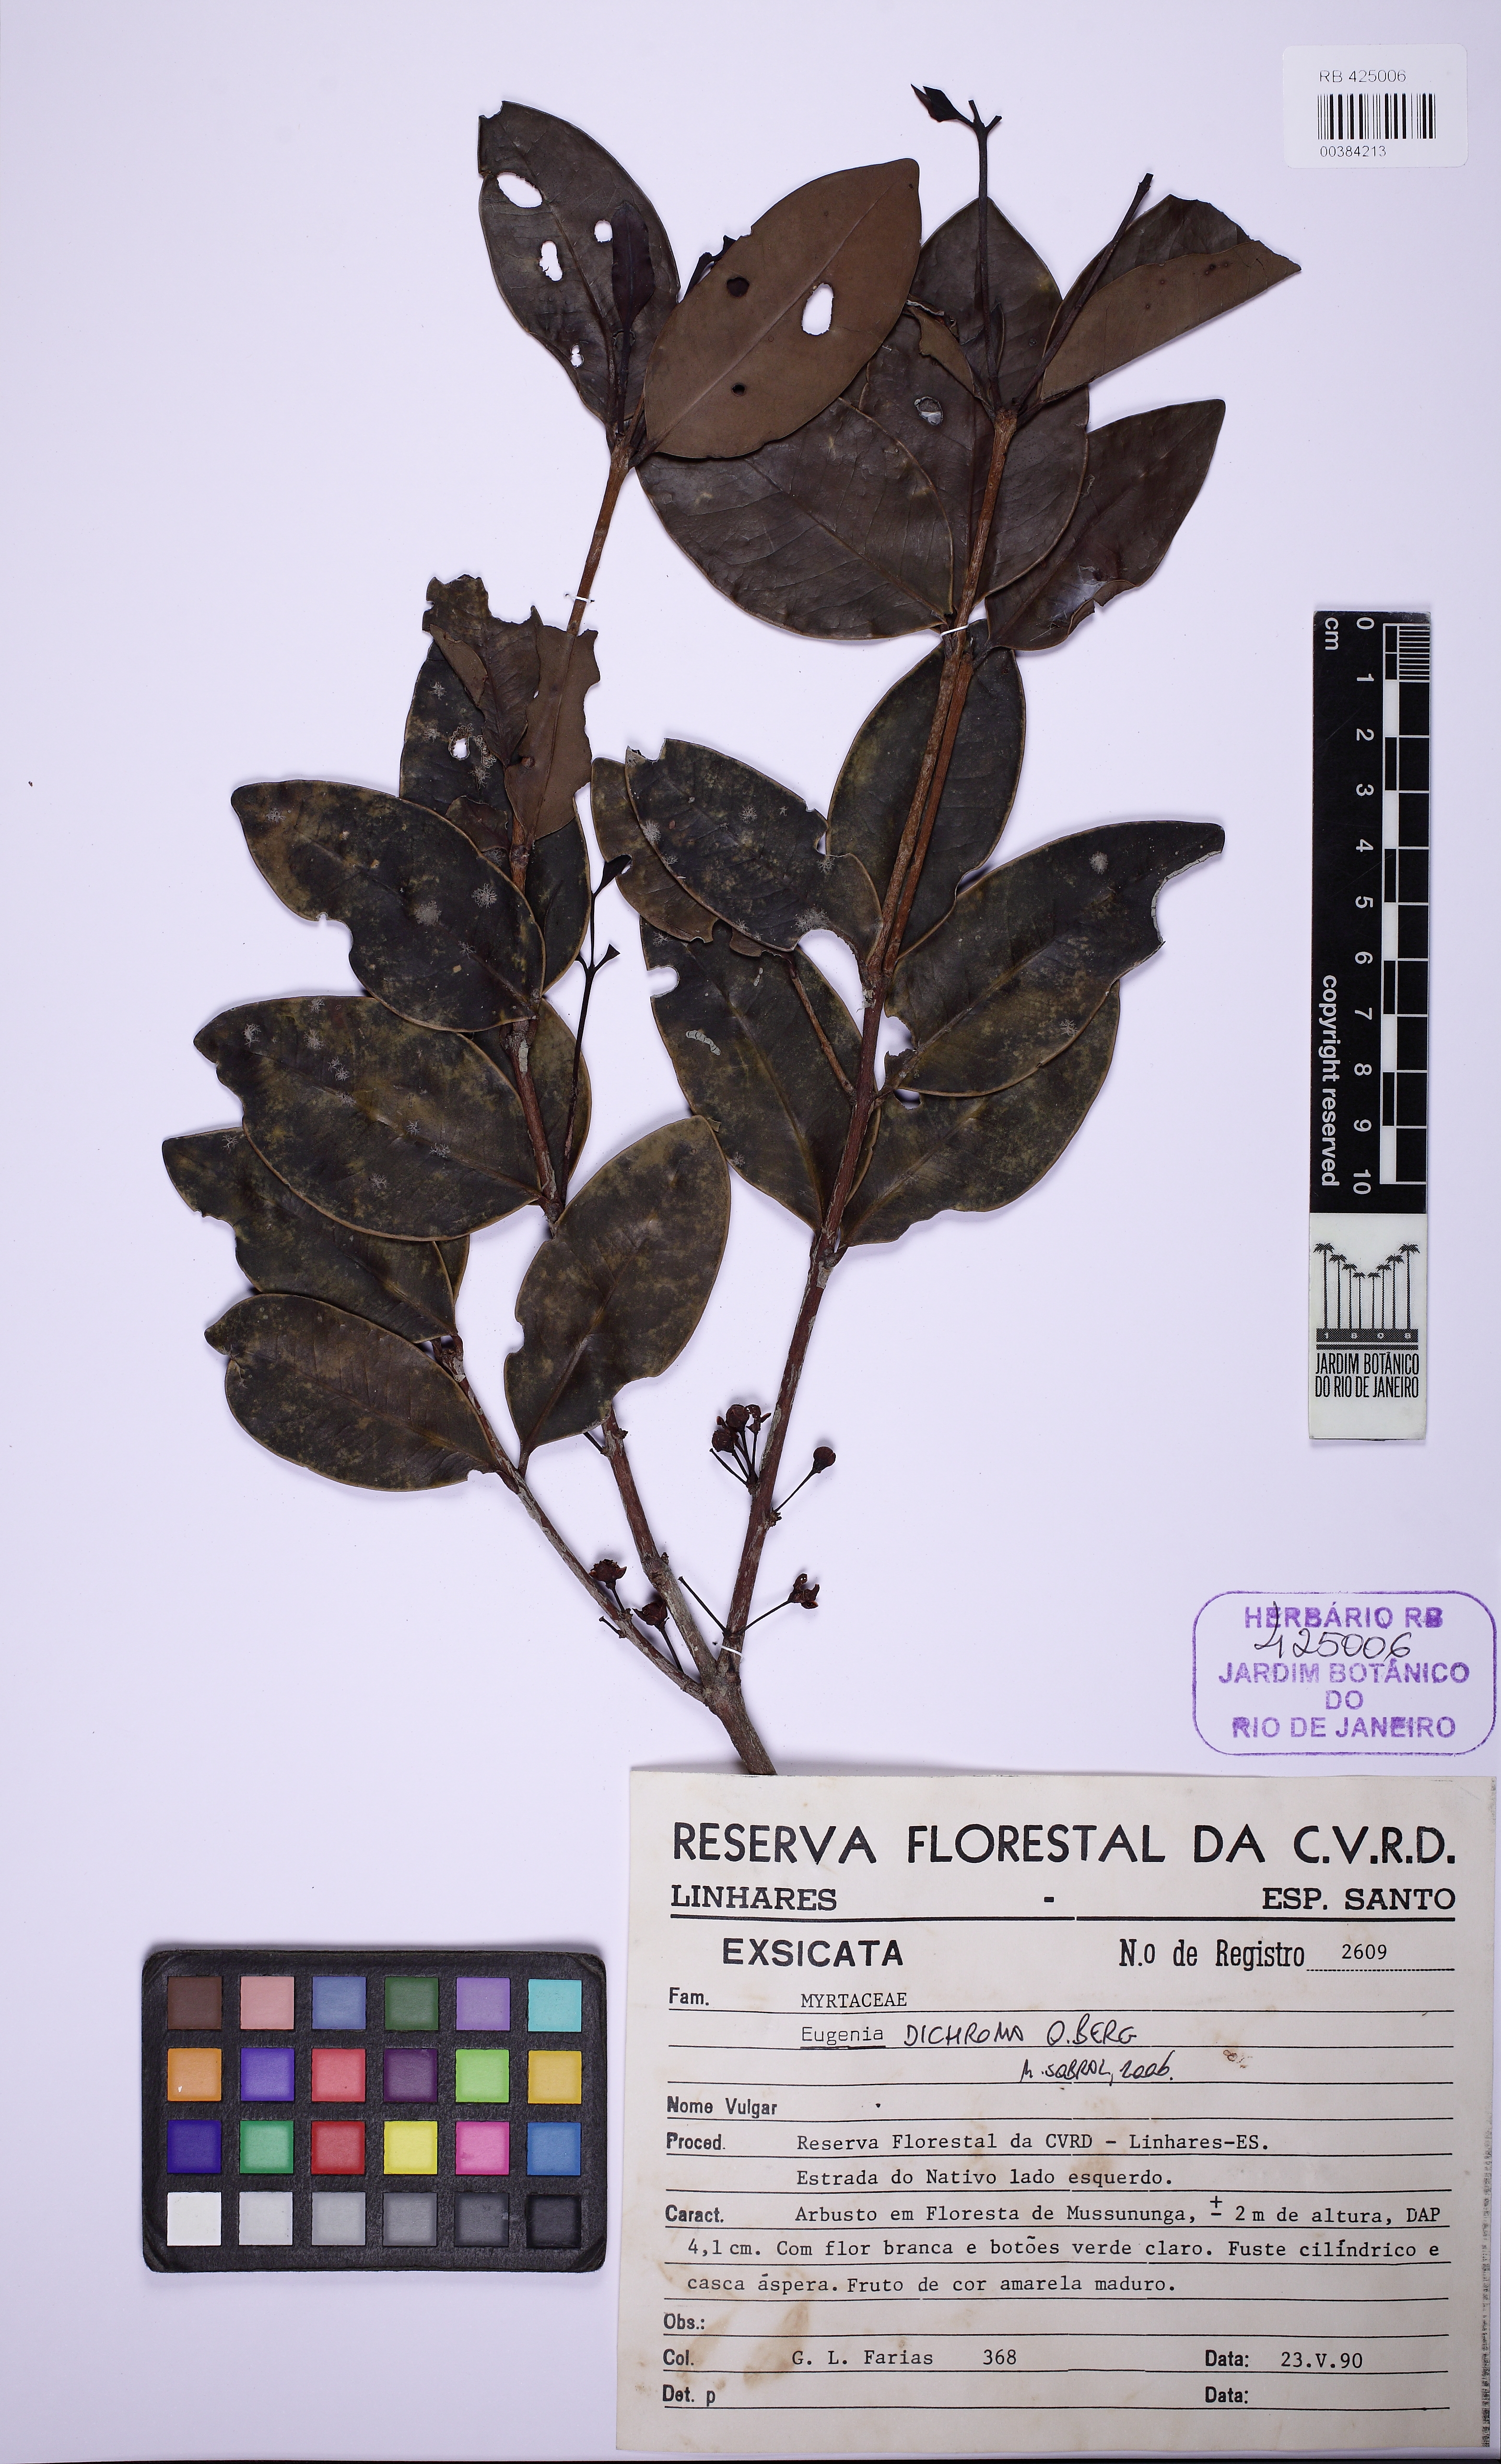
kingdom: Plantae
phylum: Tracheophyta
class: Magnoliopsida
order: Myrtales
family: Myrtaceae
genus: Eugenia
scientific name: Eugenia melanogyna
